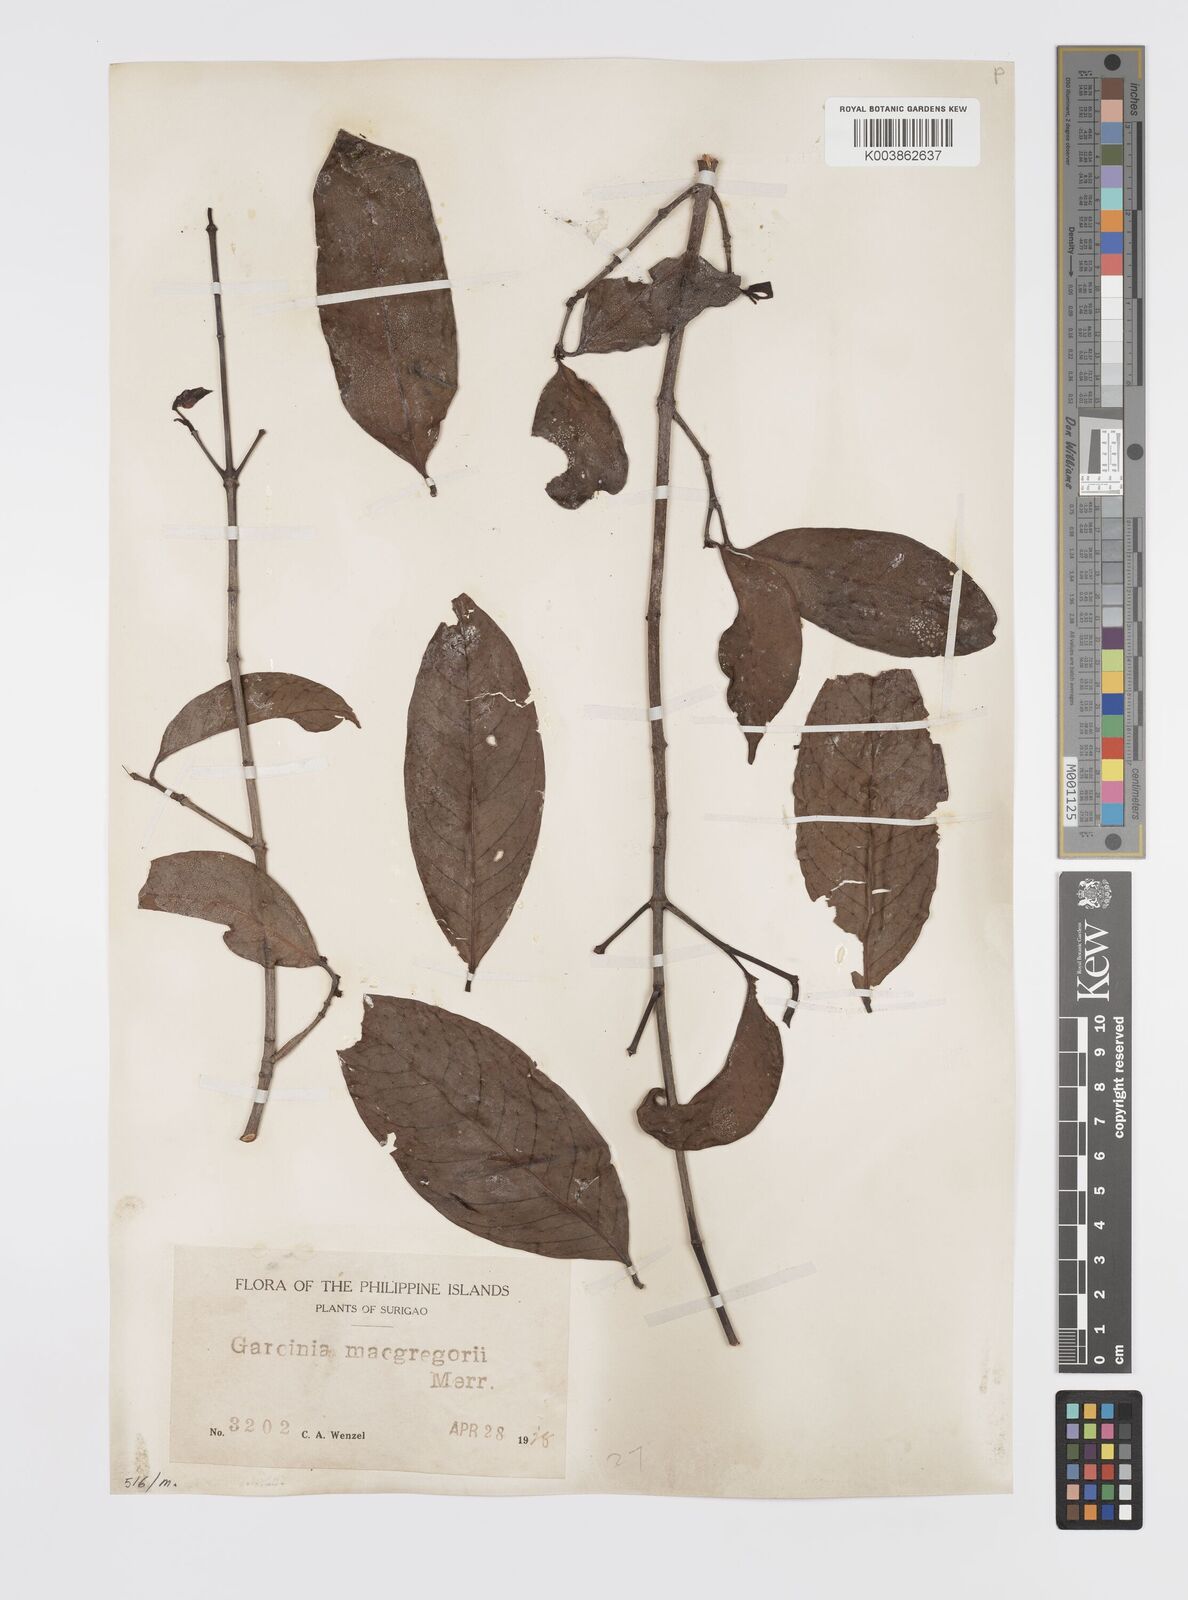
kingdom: Plantae
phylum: Tracheophyta
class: Magnoliopsida
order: Malpighiales
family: Clusiaceae
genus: Garcinia
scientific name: Garcinia macgregorii
